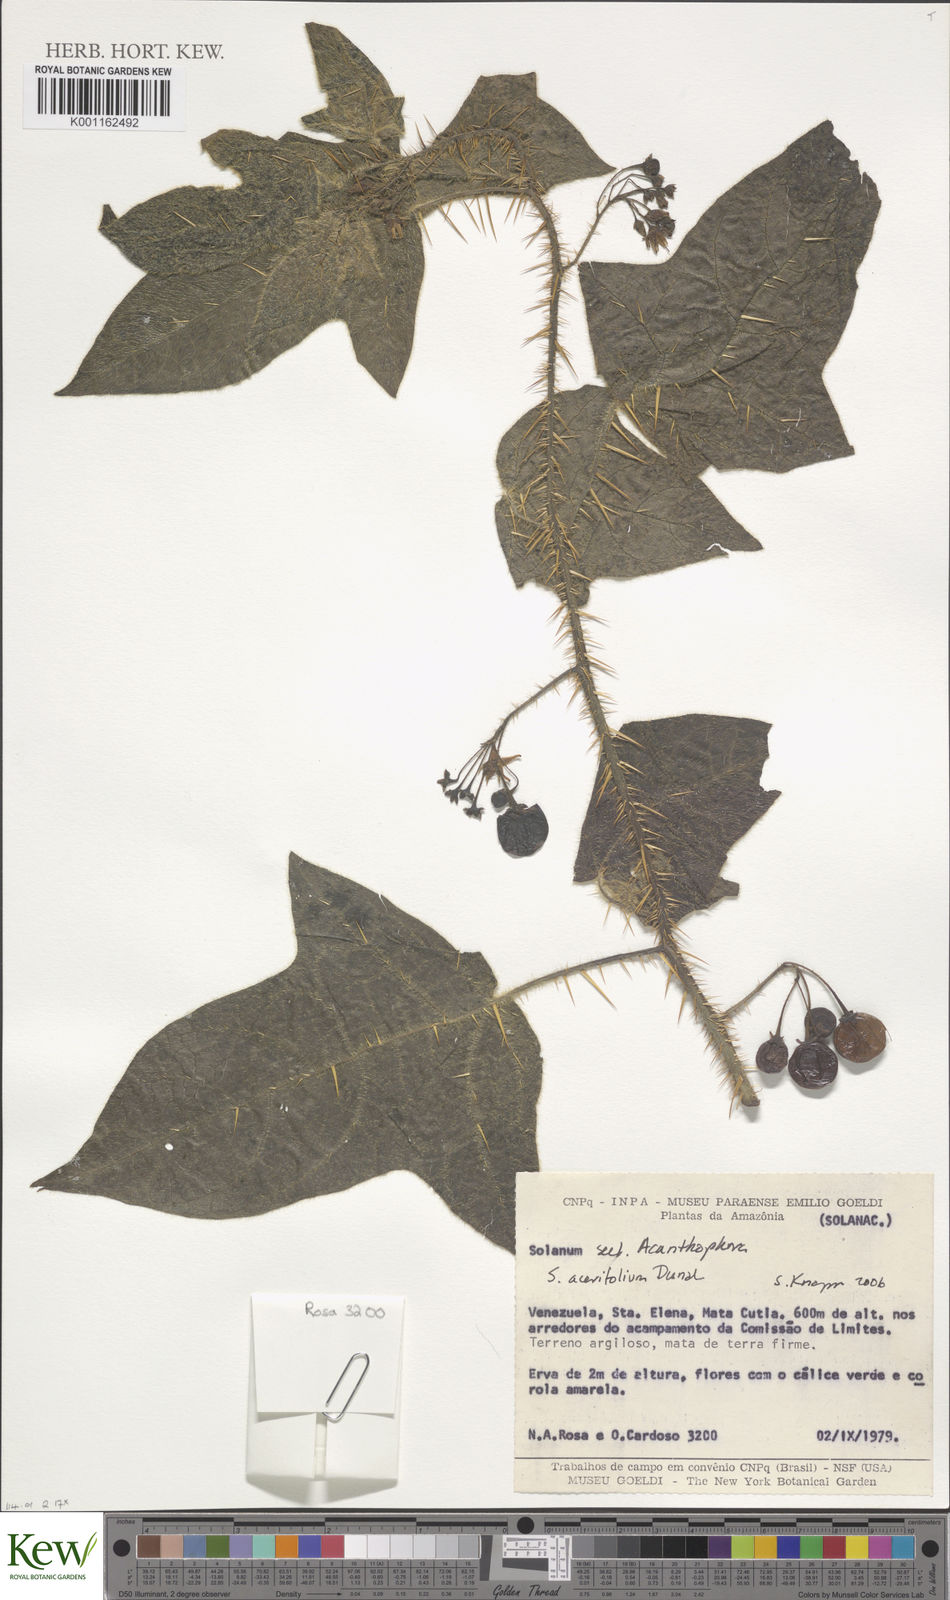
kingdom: Plantae
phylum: Tracheophyta
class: Magnoliopsida
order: Solanales
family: Solanaceae
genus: Solanum
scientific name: Solanum acerifolium
